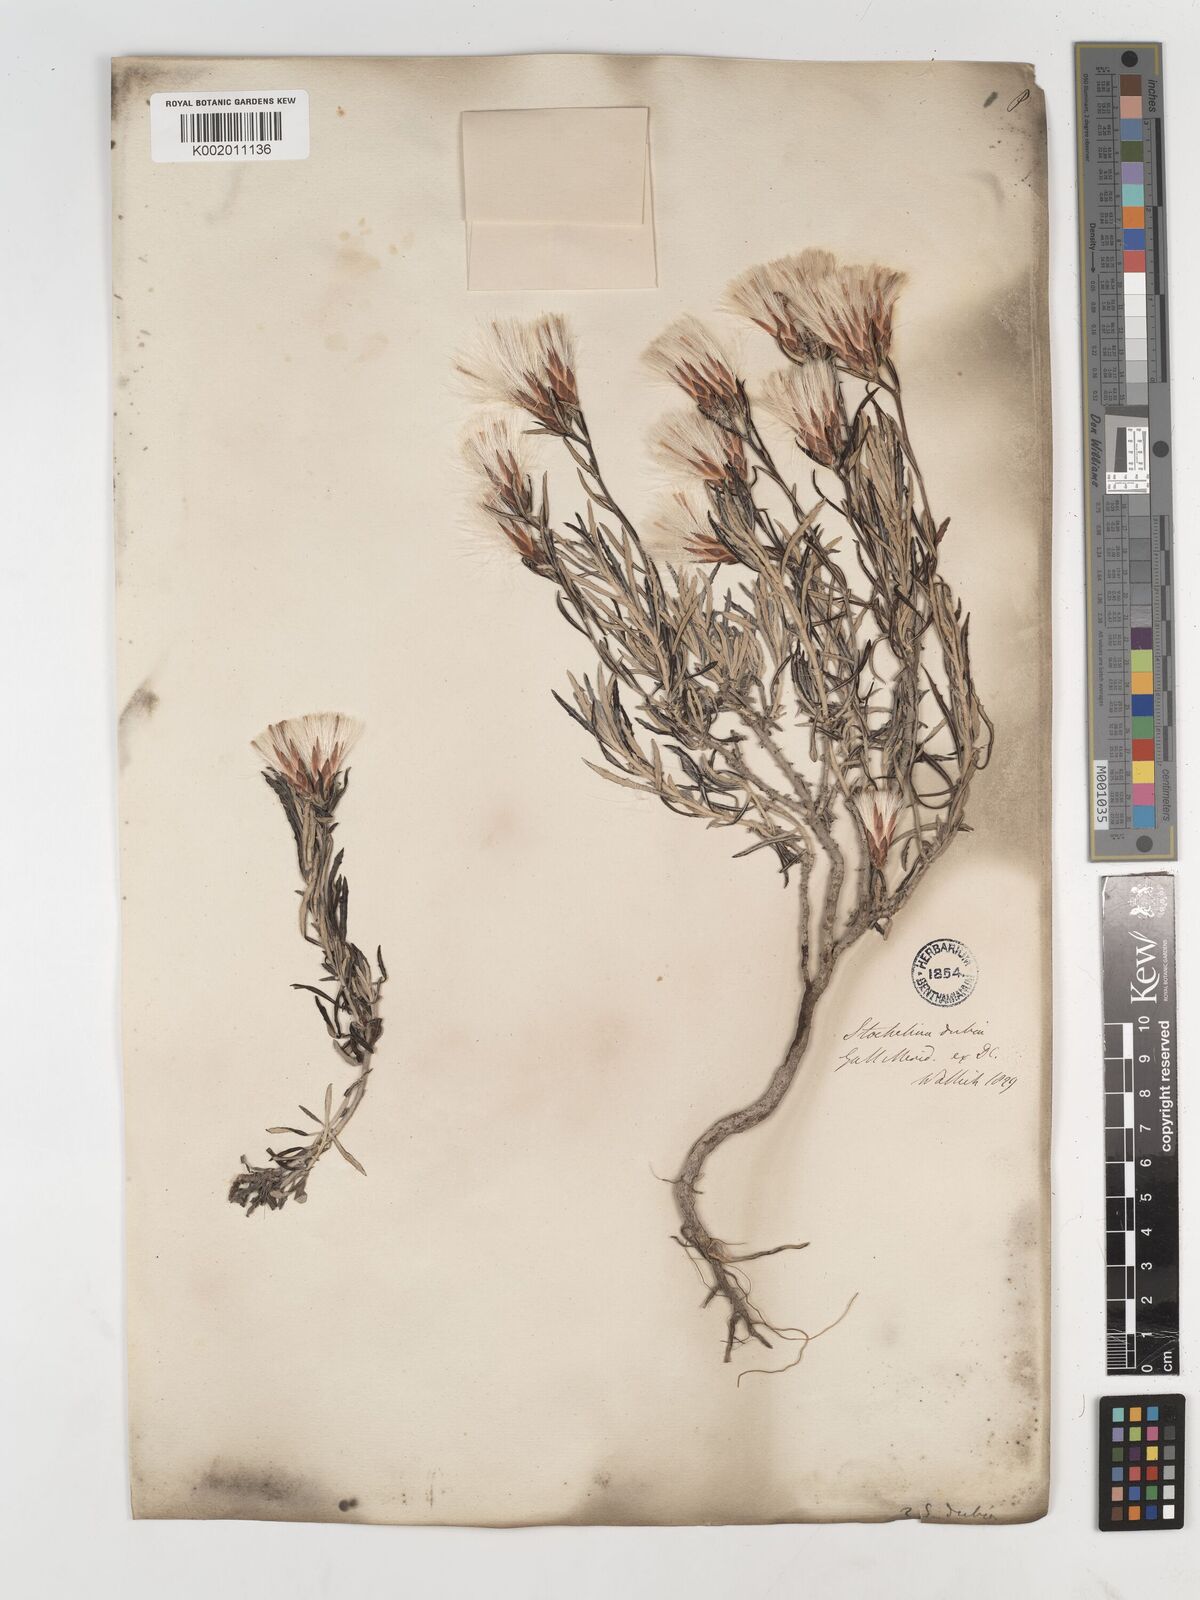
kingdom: Plantae
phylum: Tracheophyta
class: Magnoliopsida
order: Asterales
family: Asteraceae
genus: Staehelina
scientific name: Staehelina dubia
